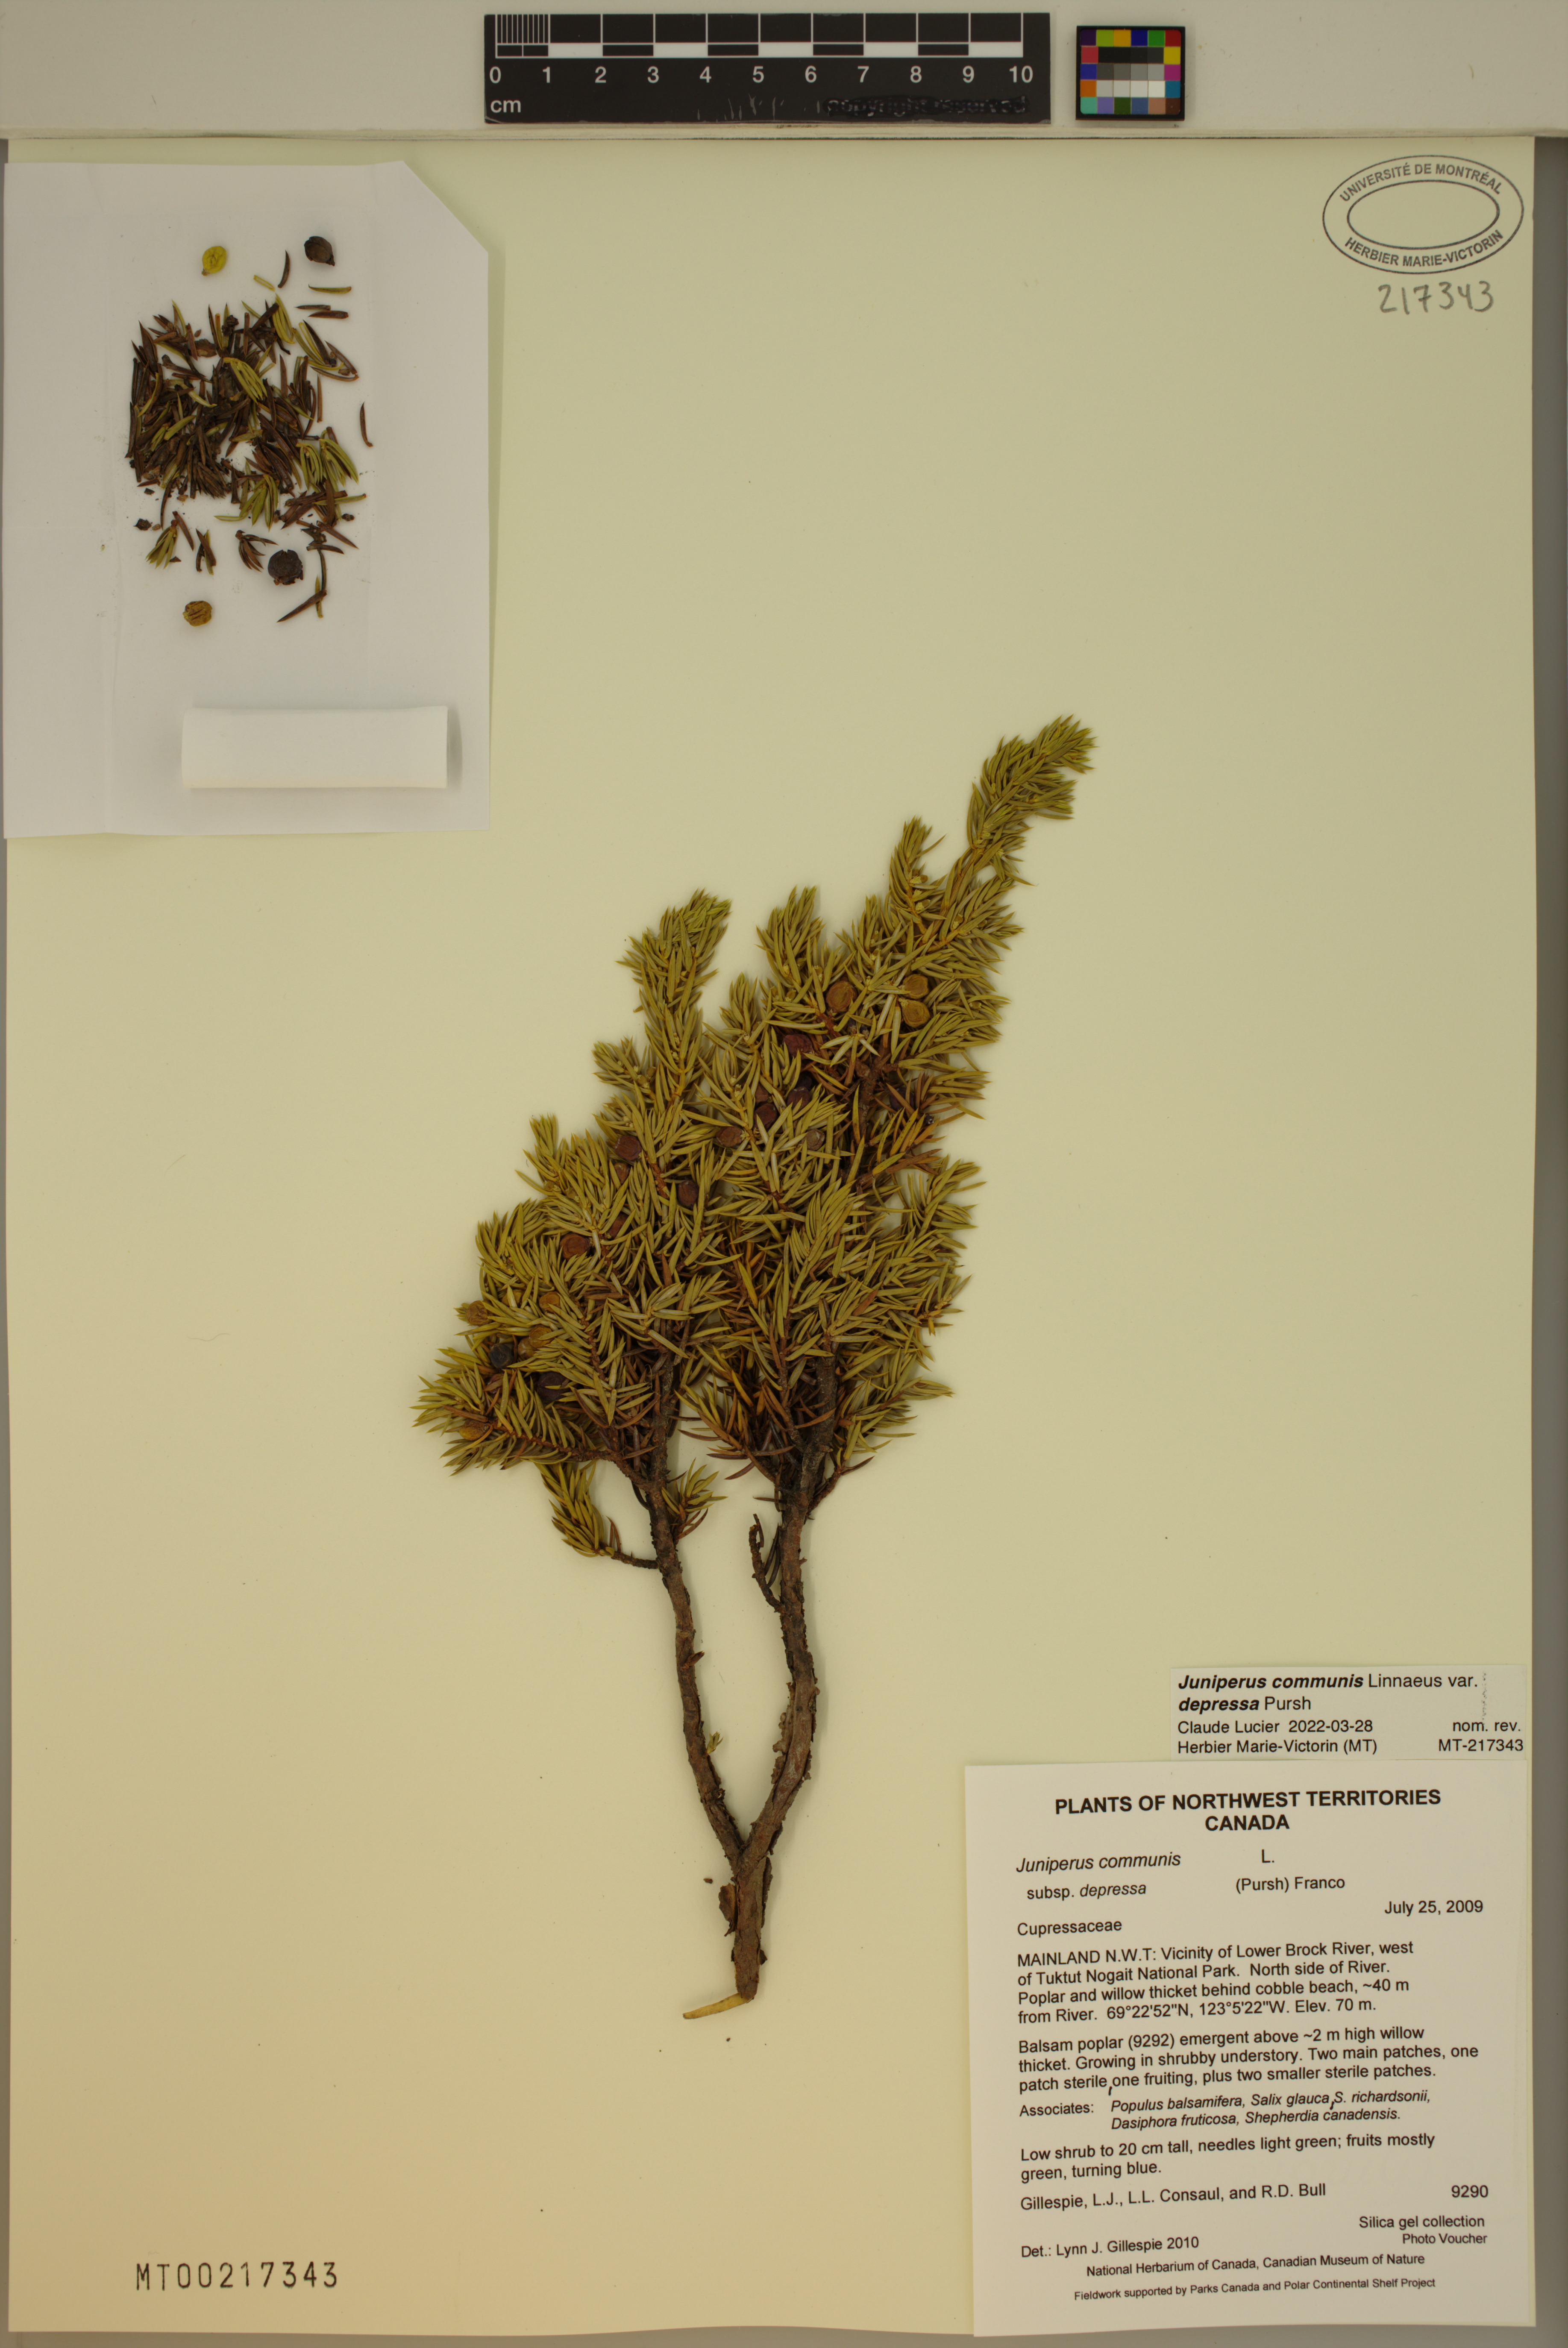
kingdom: Plantae
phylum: Tracheophyta
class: Pinopsida
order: Pinales
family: Cupressaceae
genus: Juniperus
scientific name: Juniperus communis
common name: Common juniper
